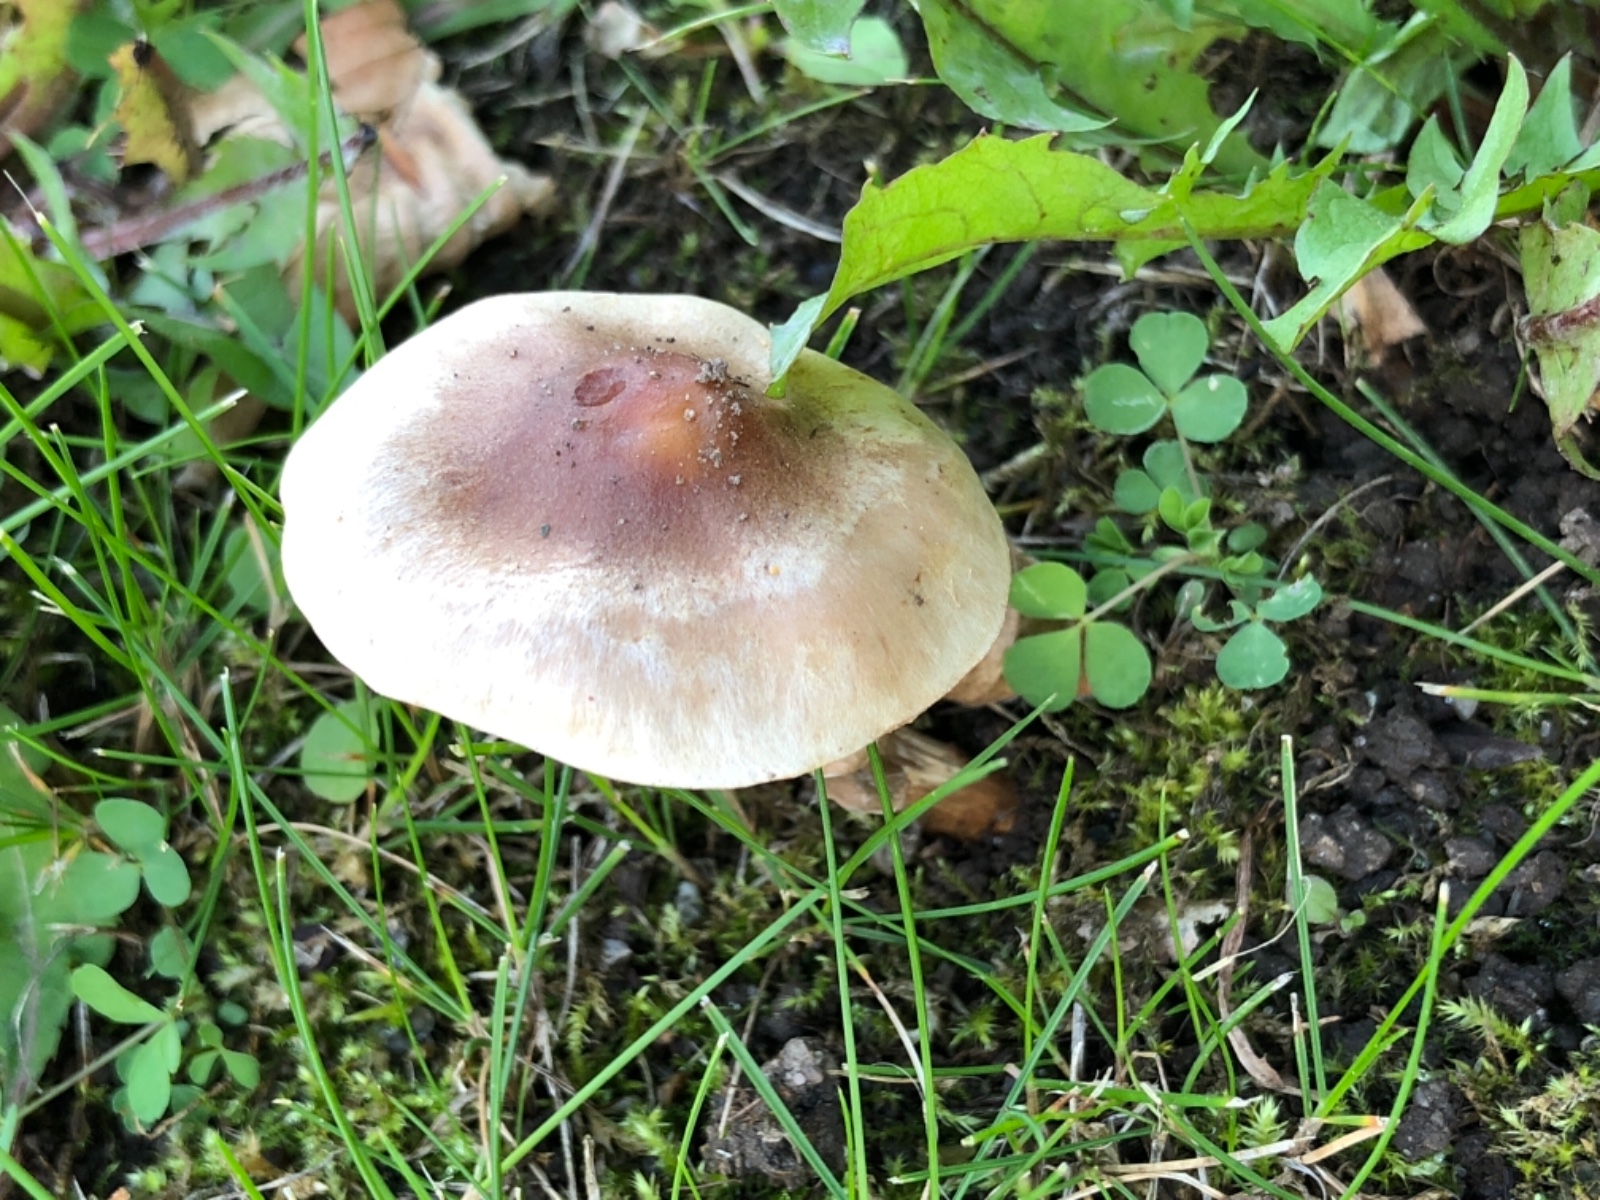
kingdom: Fungi
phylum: Basidiomycota
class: Agaricomycetes
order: Agaricales
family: Hymenogastraceae
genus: Hebeloma
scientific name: Hebeloma mesophaeum
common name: lerbrun tåreblad
